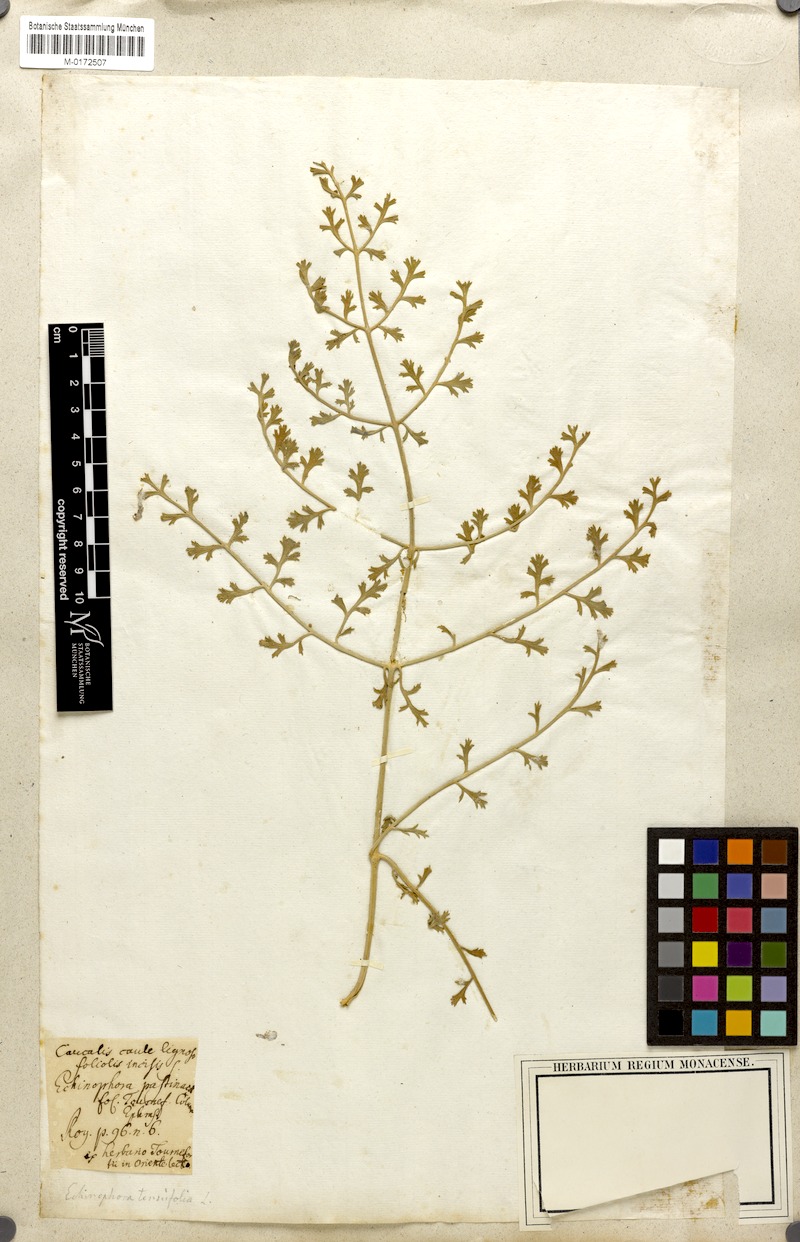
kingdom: Plantae
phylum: Tracheophyta
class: Magnoliopsida
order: Apiales
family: Apiaceae
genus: Echinophora
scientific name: Echinophora tenuifolia
